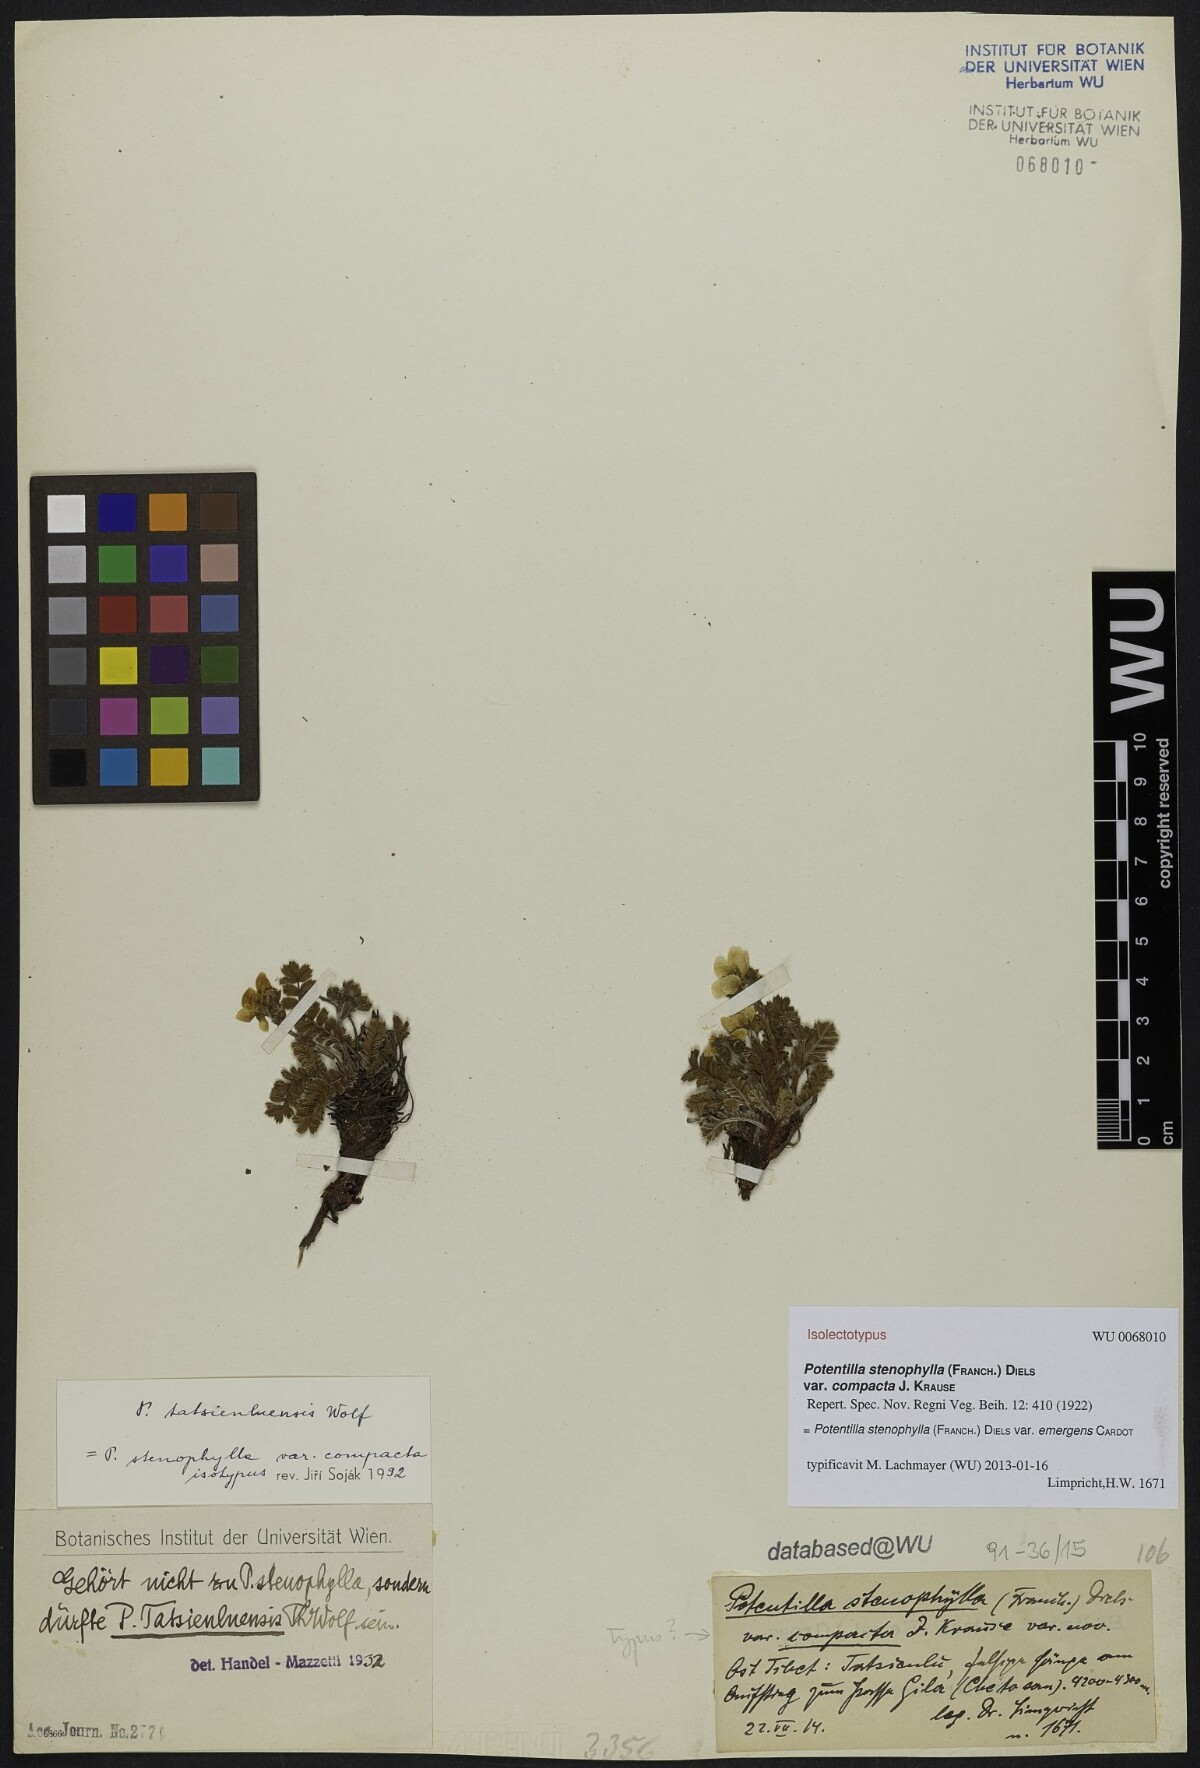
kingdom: Plantae
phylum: Tracheophyta
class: Magnoliopsida
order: Rosales
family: Rosaceae
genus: Argentina
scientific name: Argentina stenophylla
